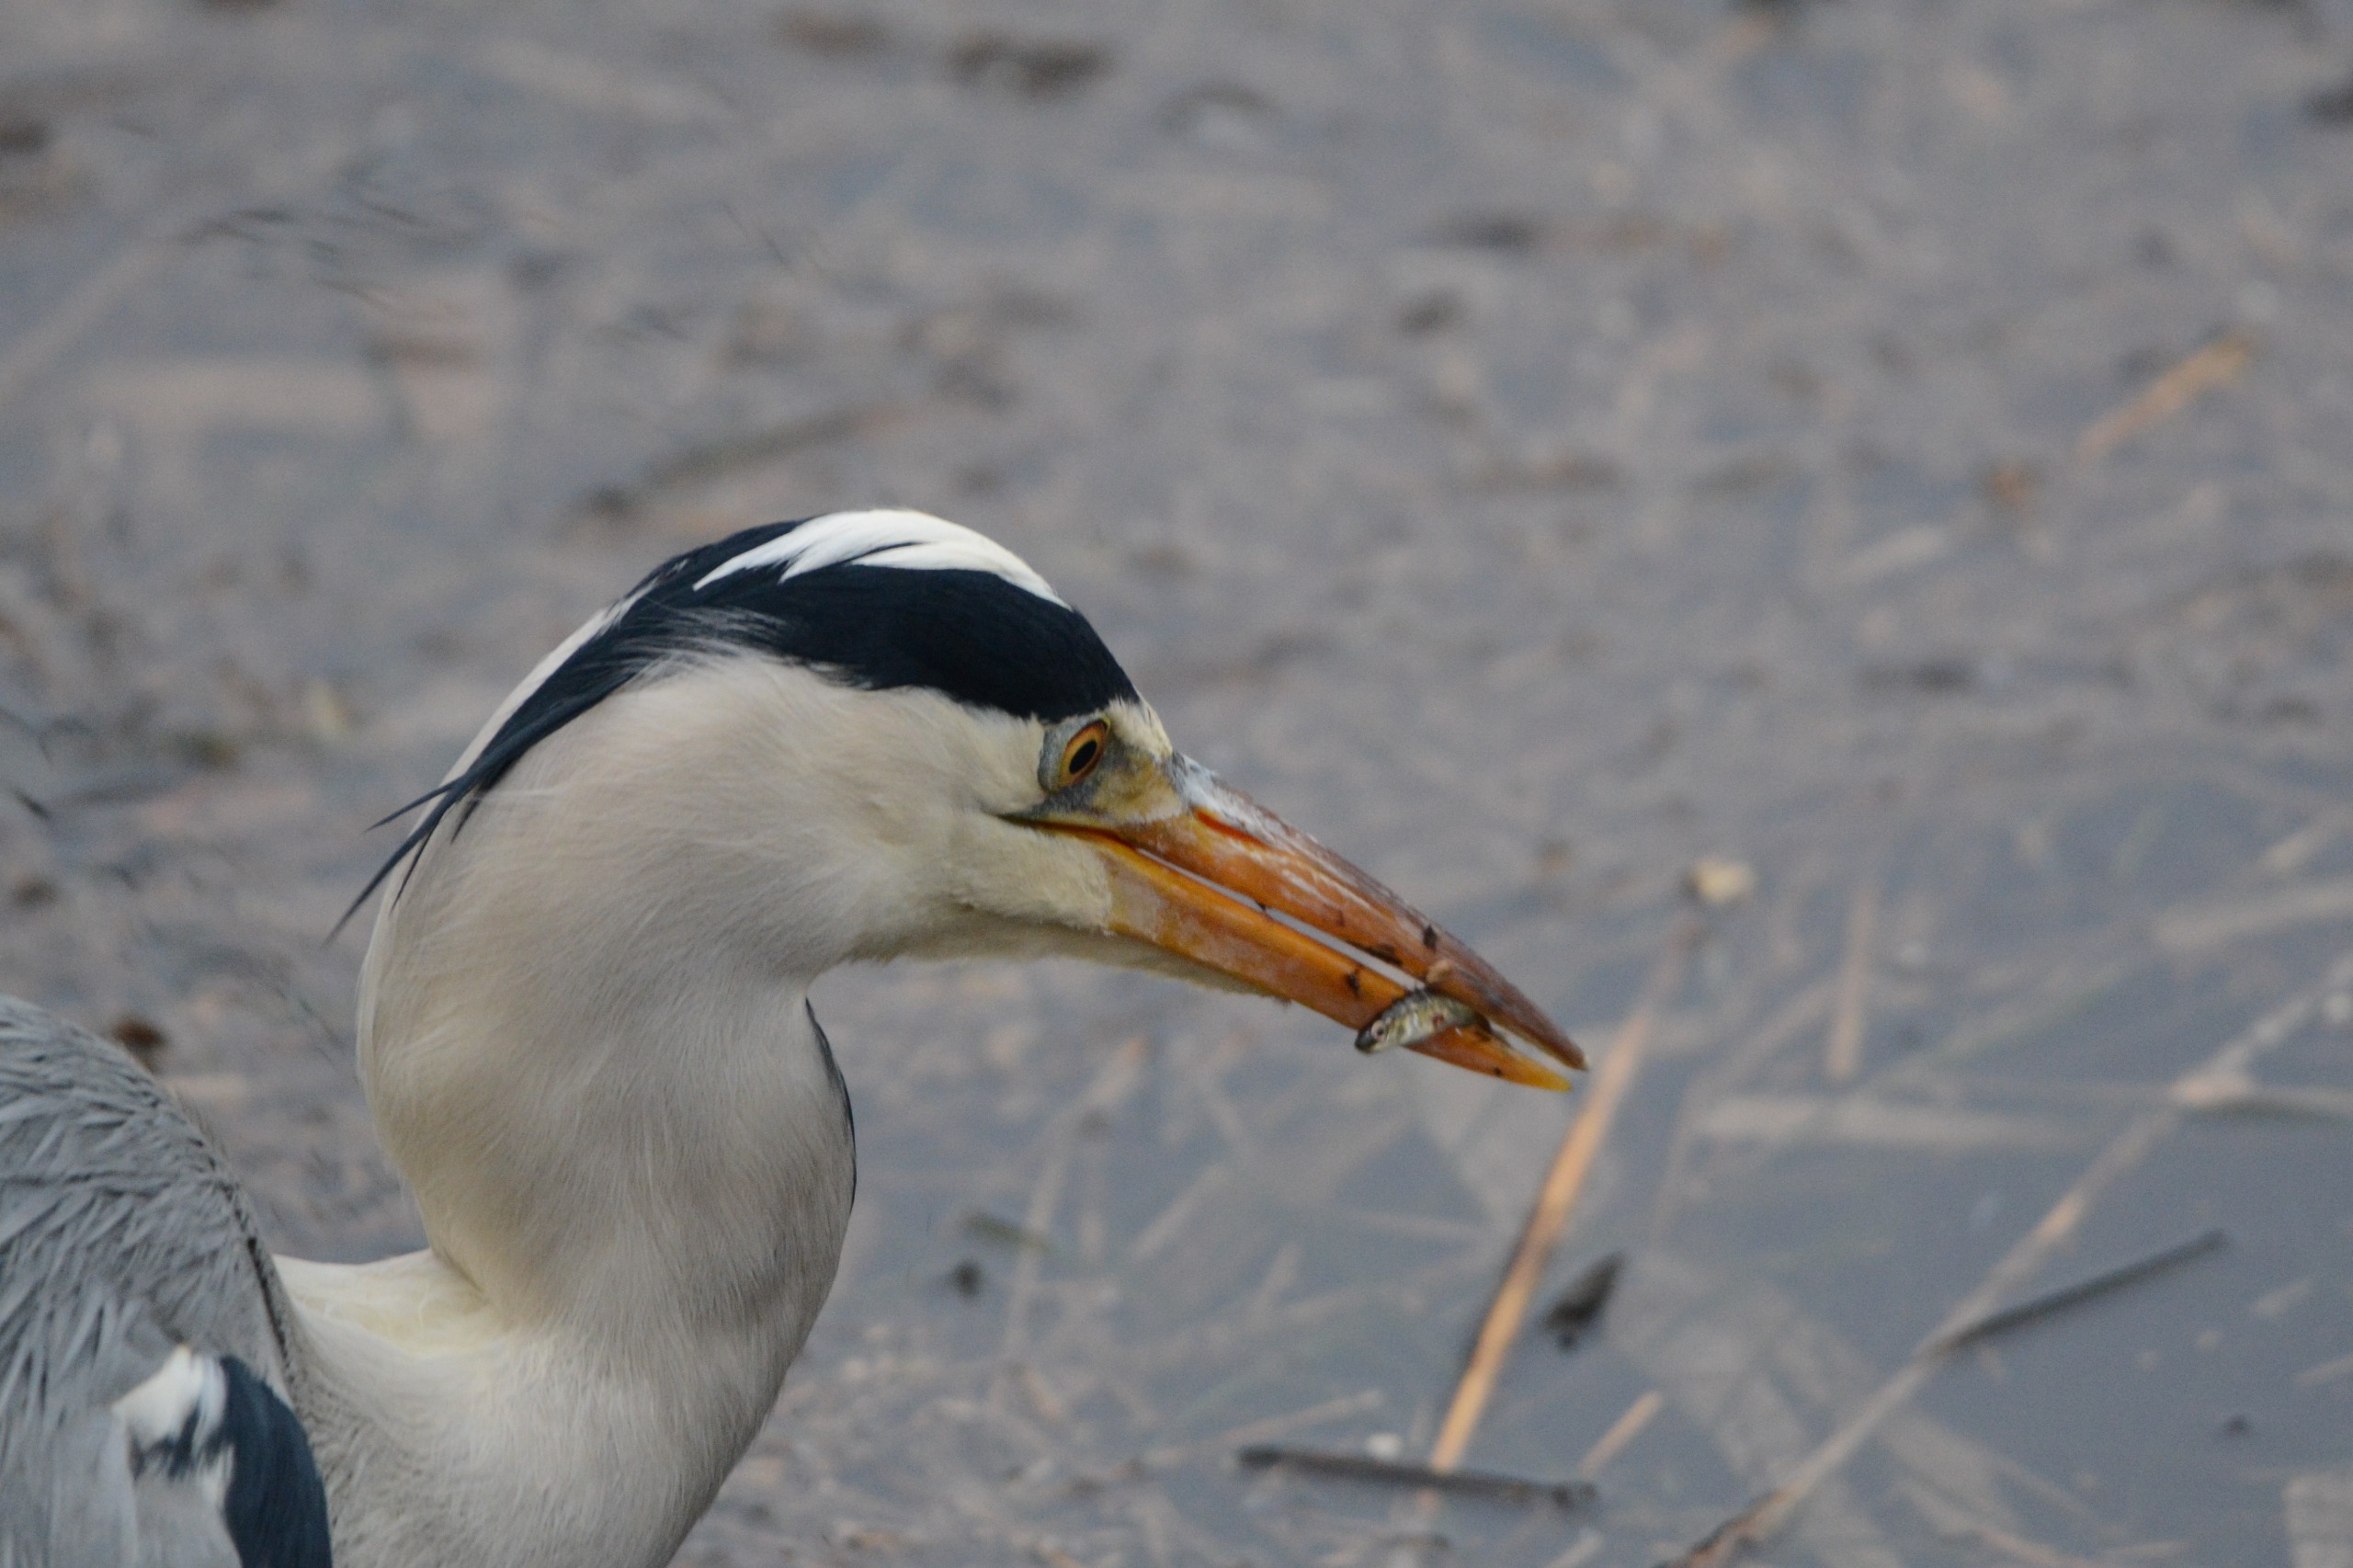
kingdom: Animalia
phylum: Chordata
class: Aves
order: Pelecaniformes
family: Ardeidae
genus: Ardea
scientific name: Ardea cinerea
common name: Fiskehejre
